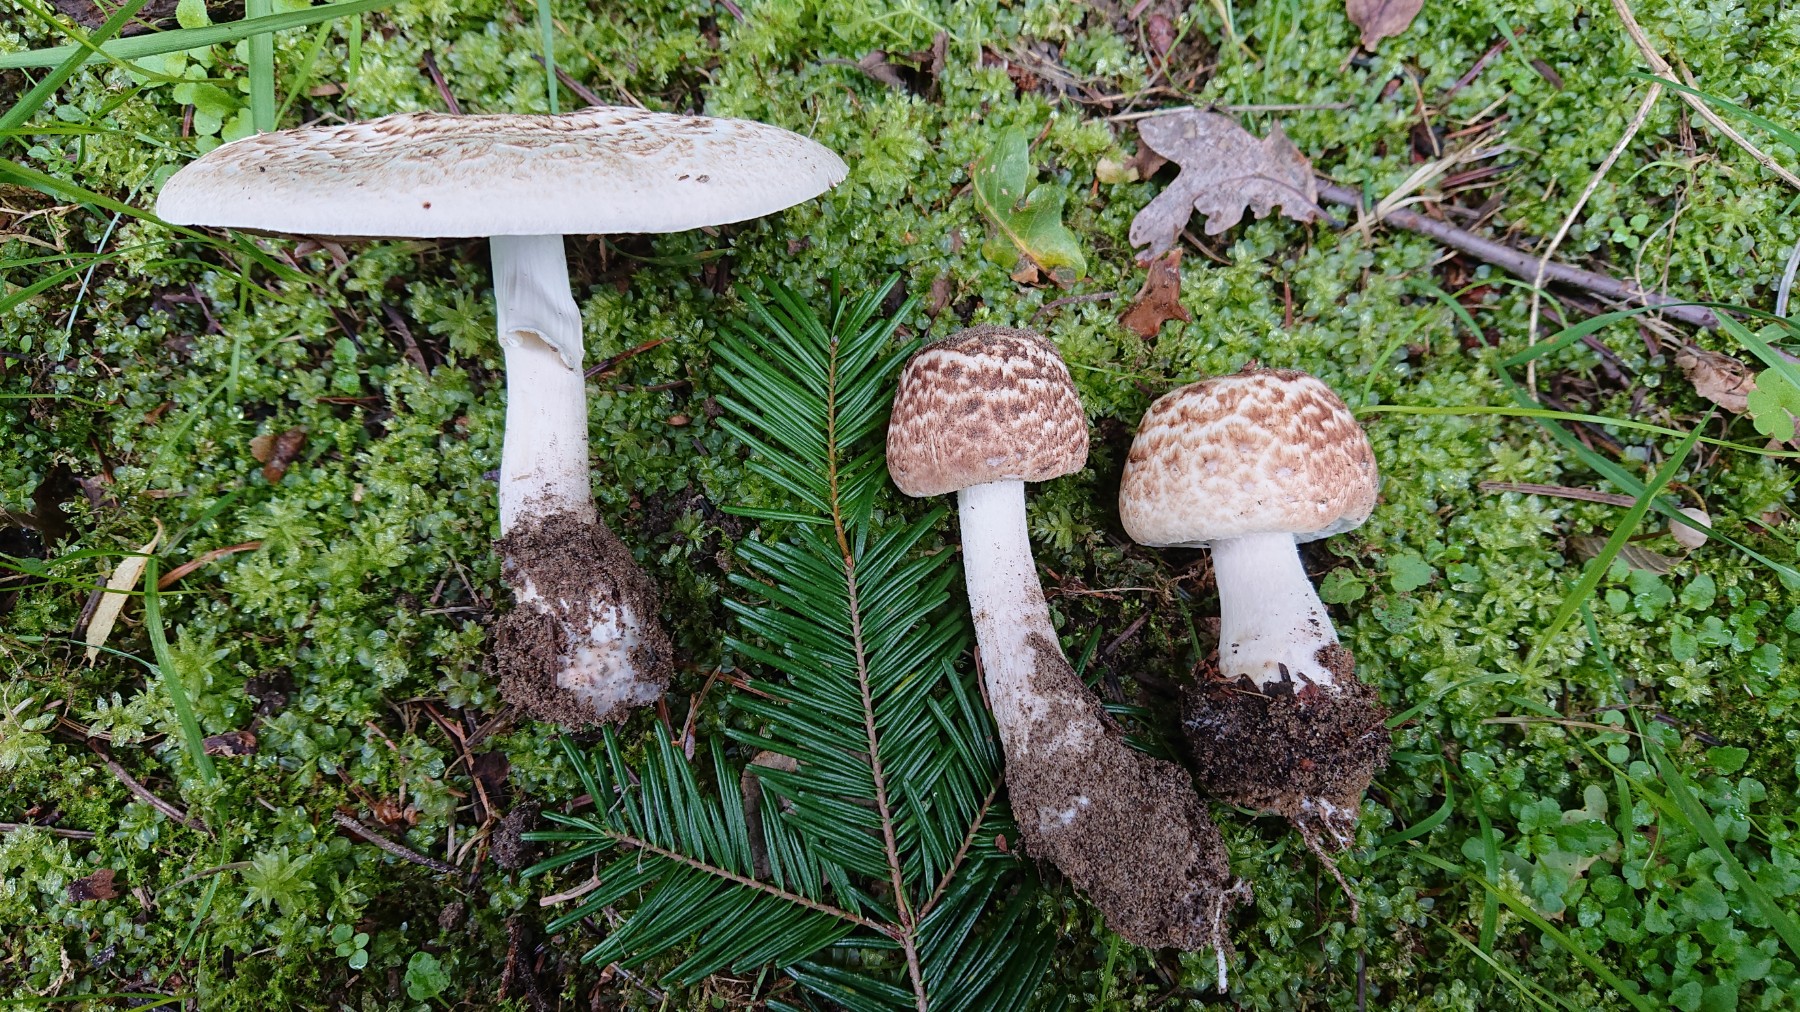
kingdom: Fungi
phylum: Basidiomycota
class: Agaricomycetes
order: Agaricales
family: Agaricaceae
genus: Agaricus
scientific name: Agaricus impudicus
